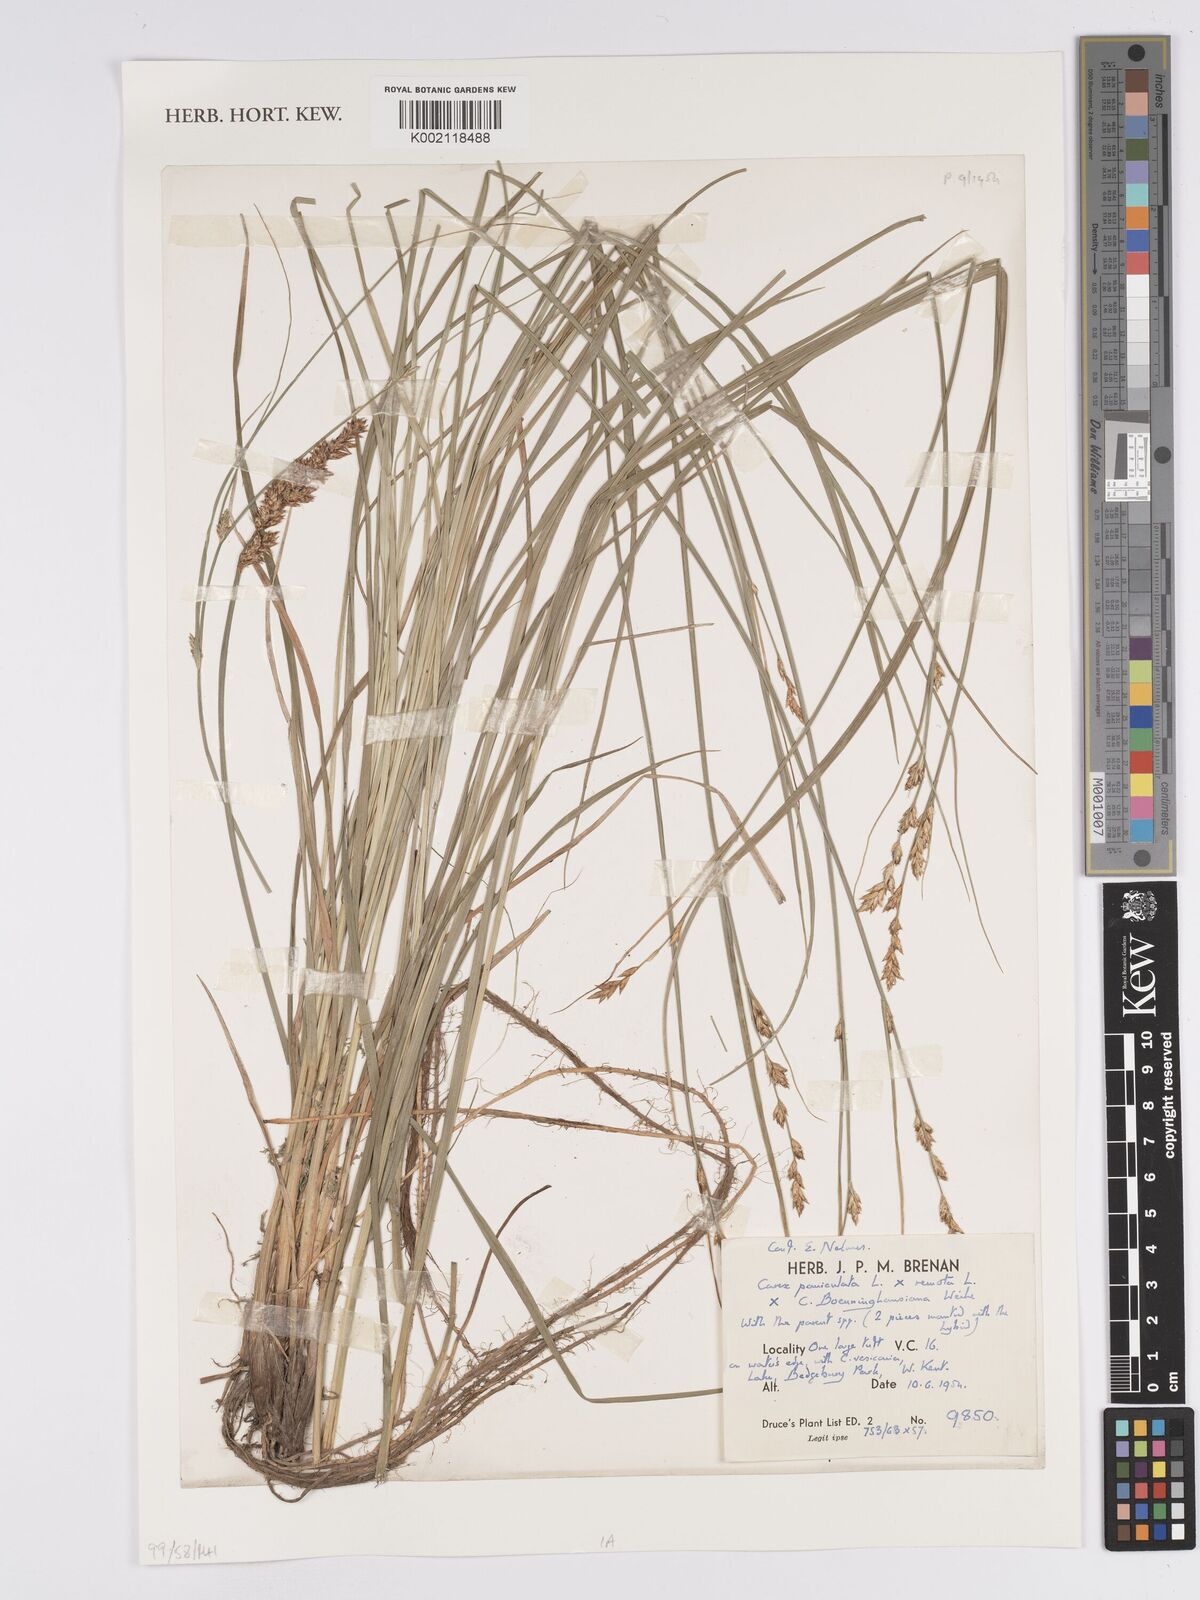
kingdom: Plantae
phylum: Tracheophyta
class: Liliopsida
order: Poales
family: Cyperaceae
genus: Carex
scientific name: Carex boenninghausiana
